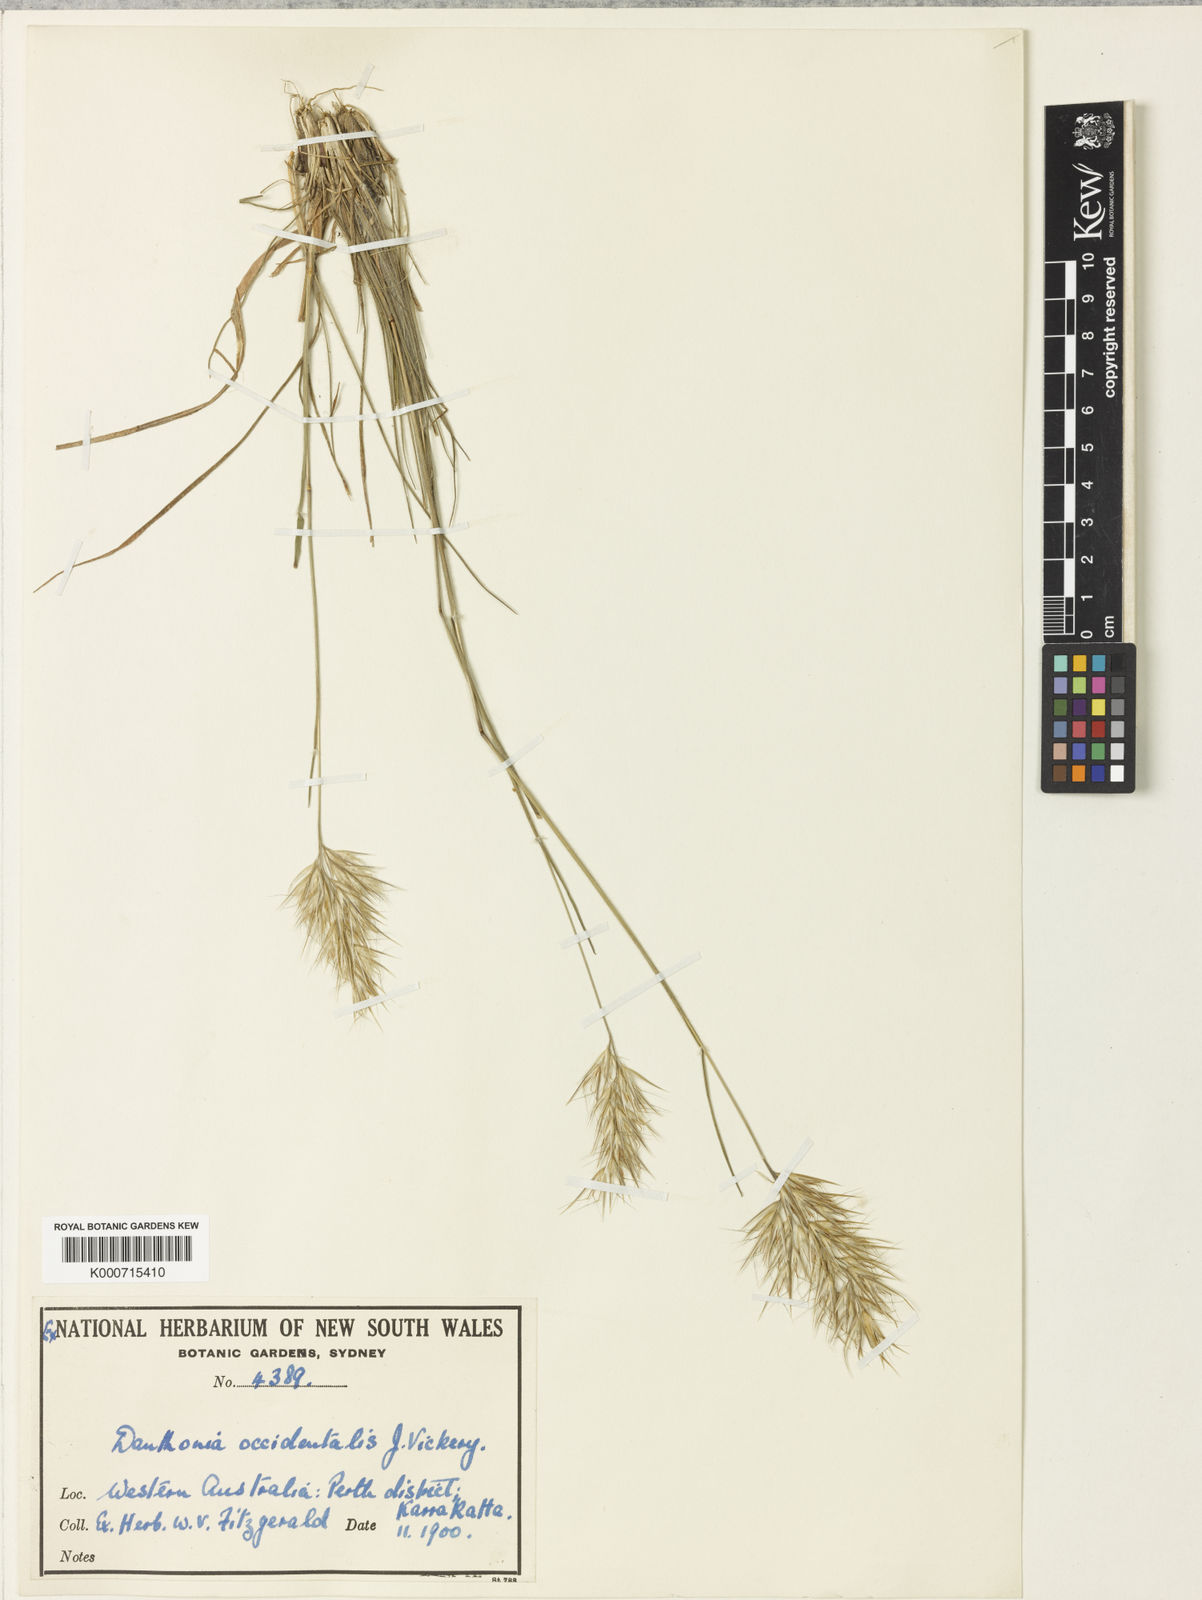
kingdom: Plantae
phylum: Tracheophyta
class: Liliopsida
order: Poales
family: Poaceae
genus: Rytidosperma
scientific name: Rytidosperma occidentale
